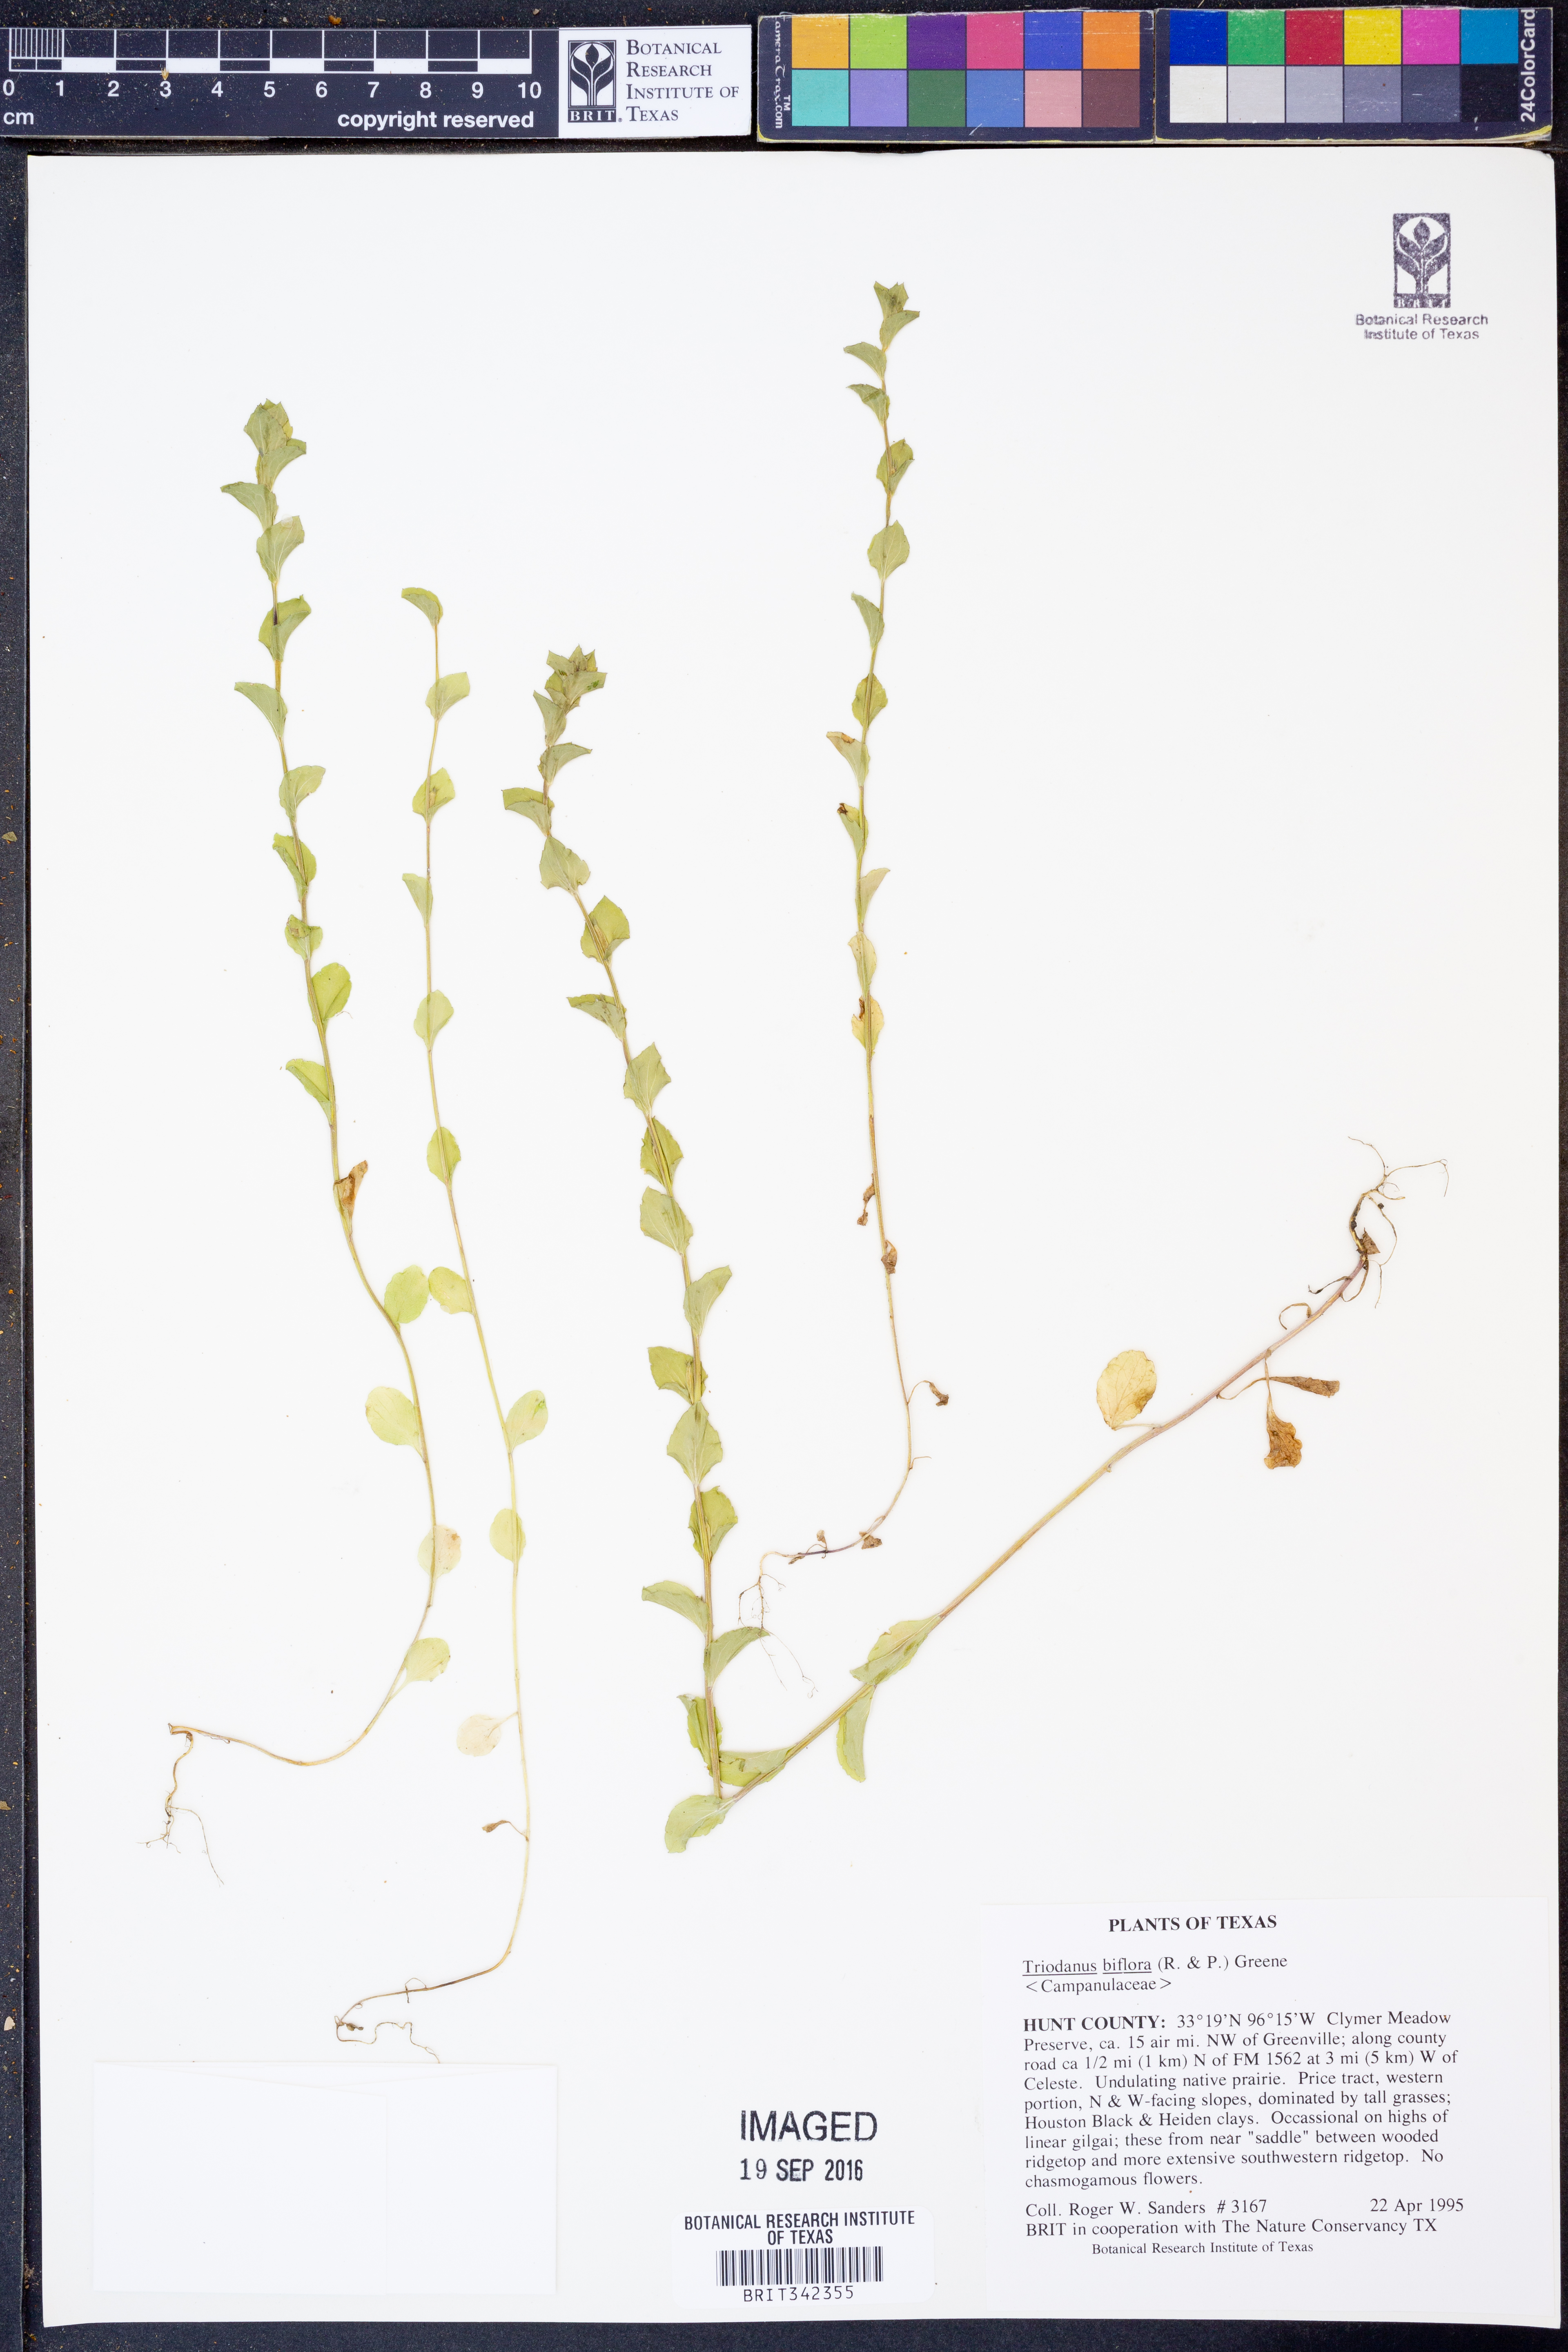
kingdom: Plantae
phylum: Tracheophyta
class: Magnoliopsida
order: Asterales
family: Campanulaceae
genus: Triodanis
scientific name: Triodanis perfoliata
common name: Clasping venus' looking-glass
